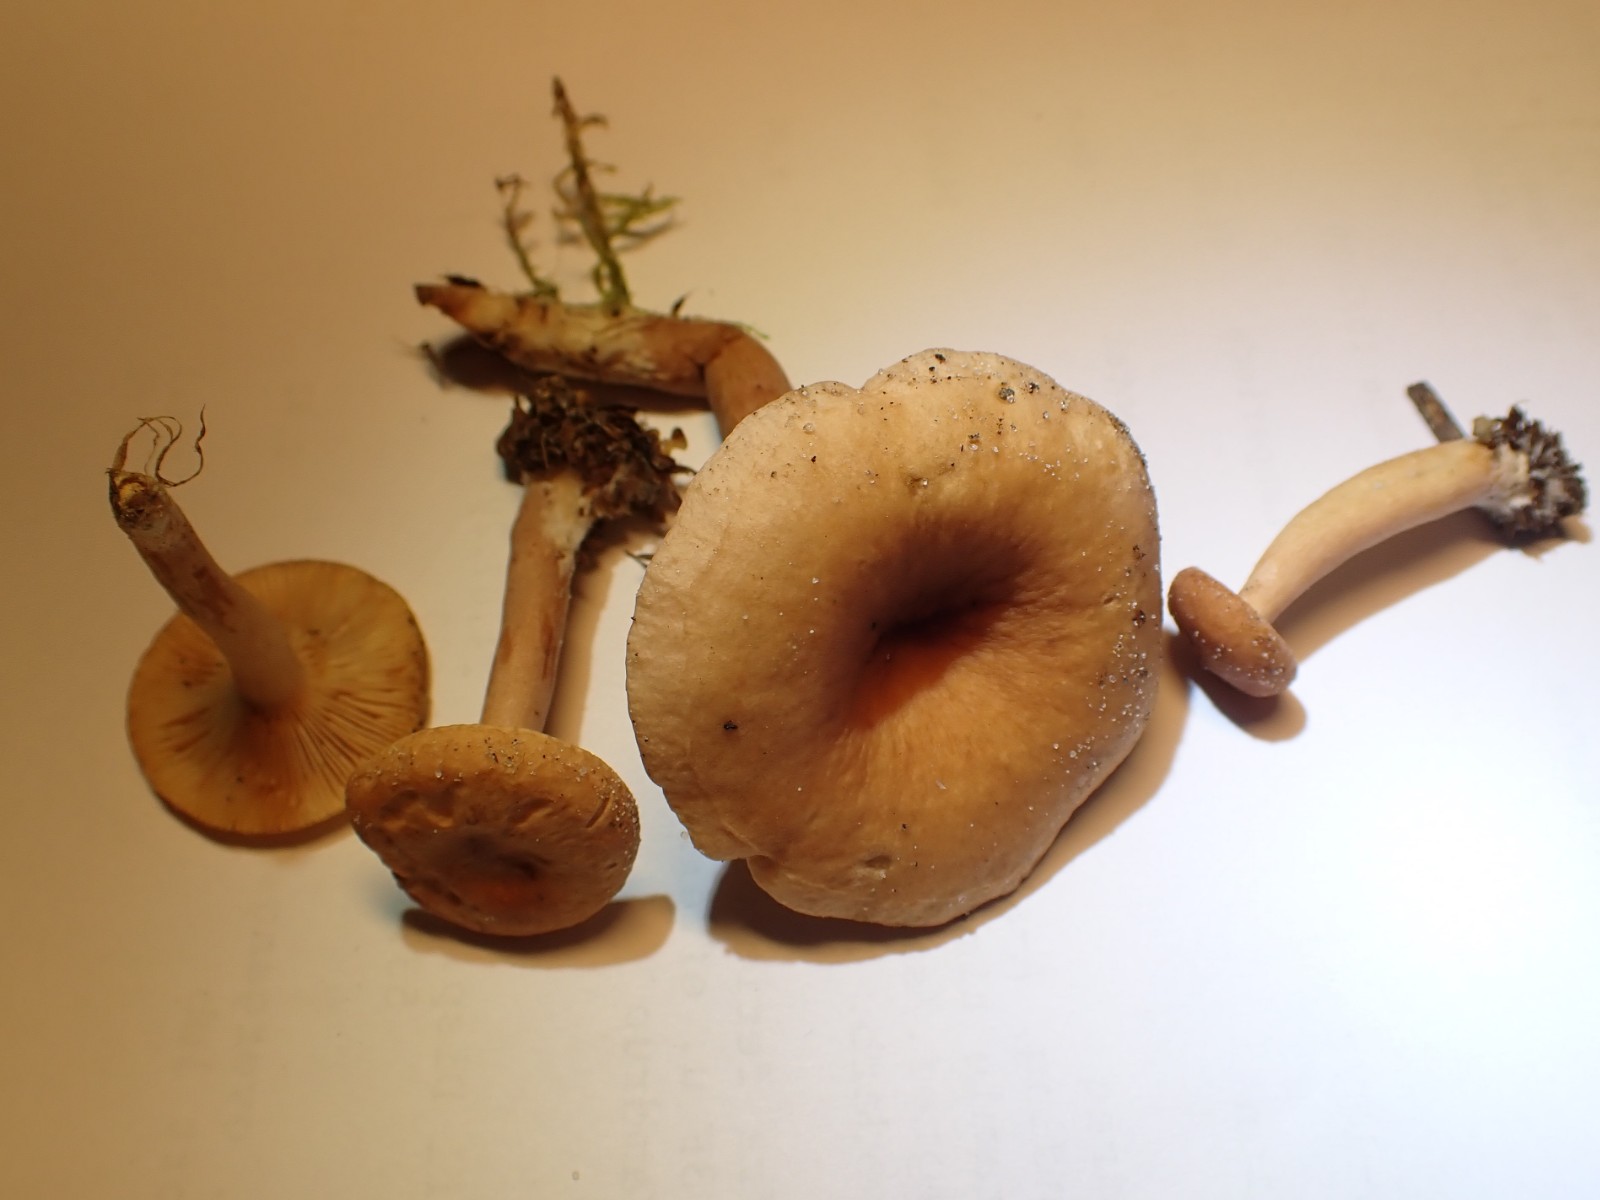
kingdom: Fungi
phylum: Basidiomycota
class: Agaricomycetes
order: Russulales
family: Russulaceae
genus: Lactarius
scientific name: Lactarius tabidus
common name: rynket mælkehat
